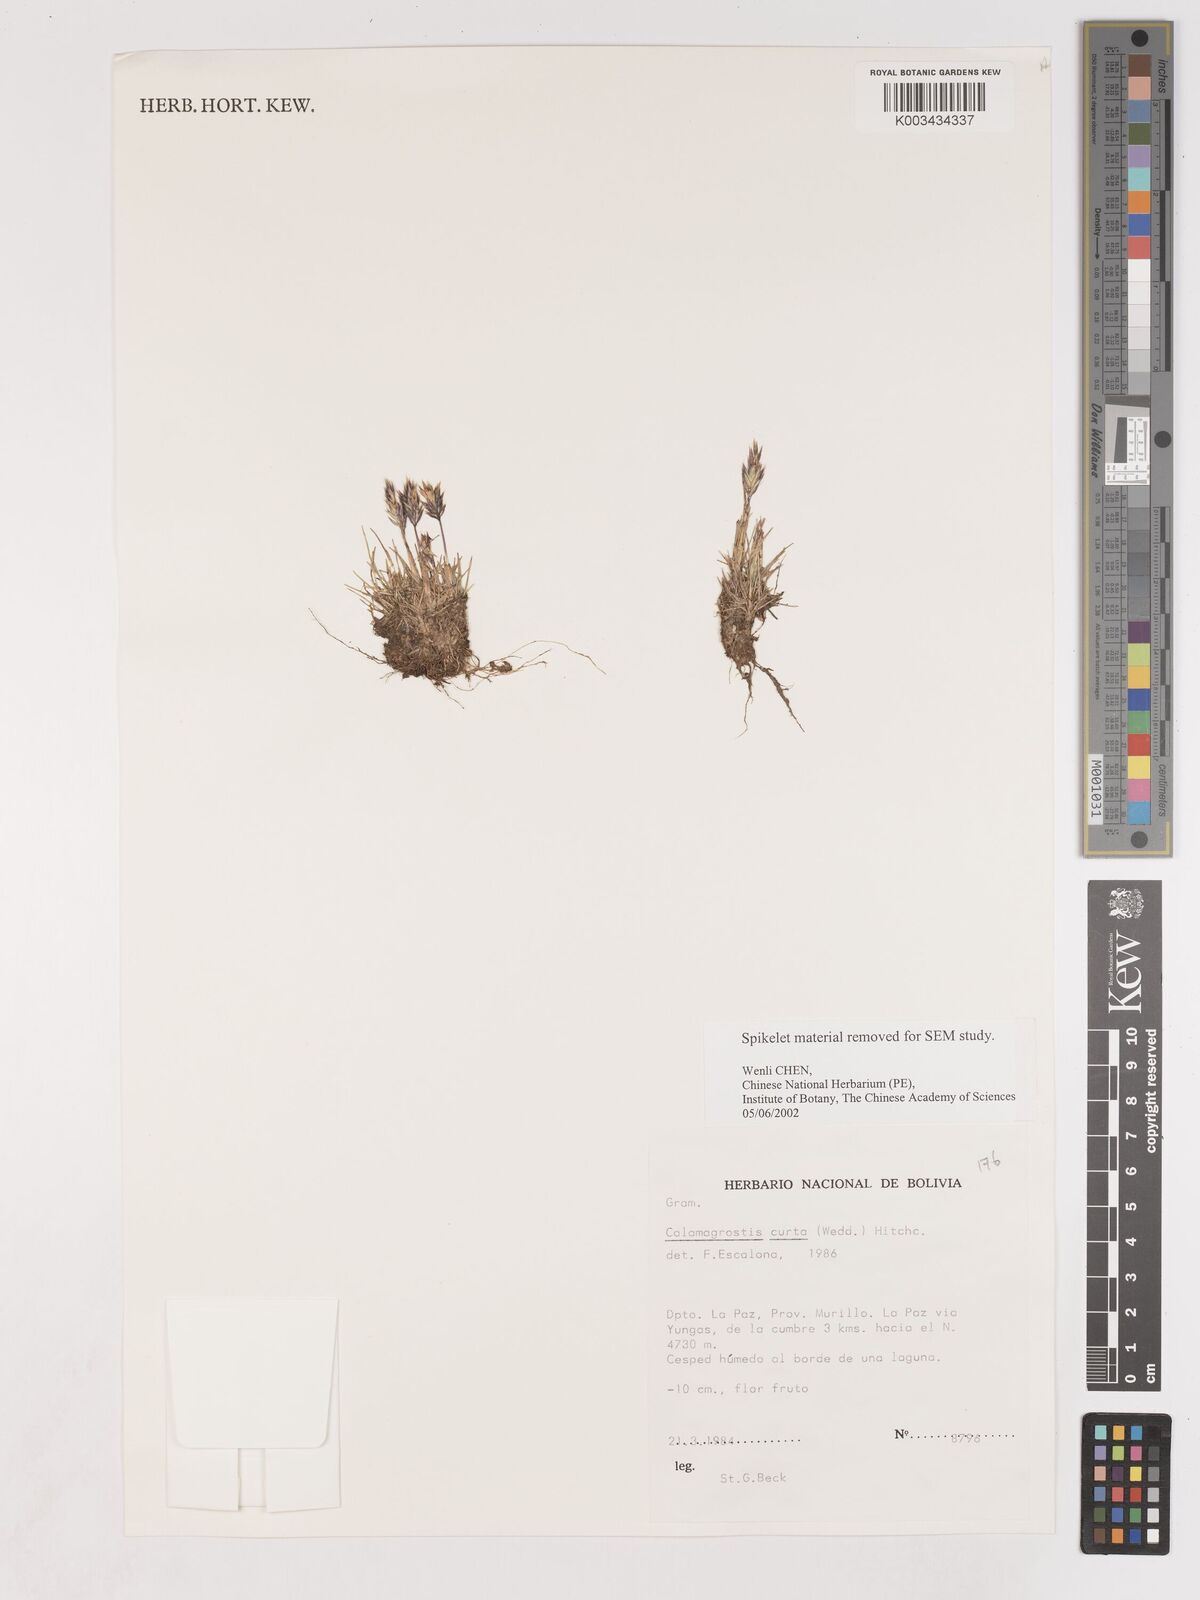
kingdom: Plantae
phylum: Tracheophyta
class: Liliopsida
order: Poales
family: Poaceae
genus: Cinnagrostis
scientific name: Cinnagrostis curta
